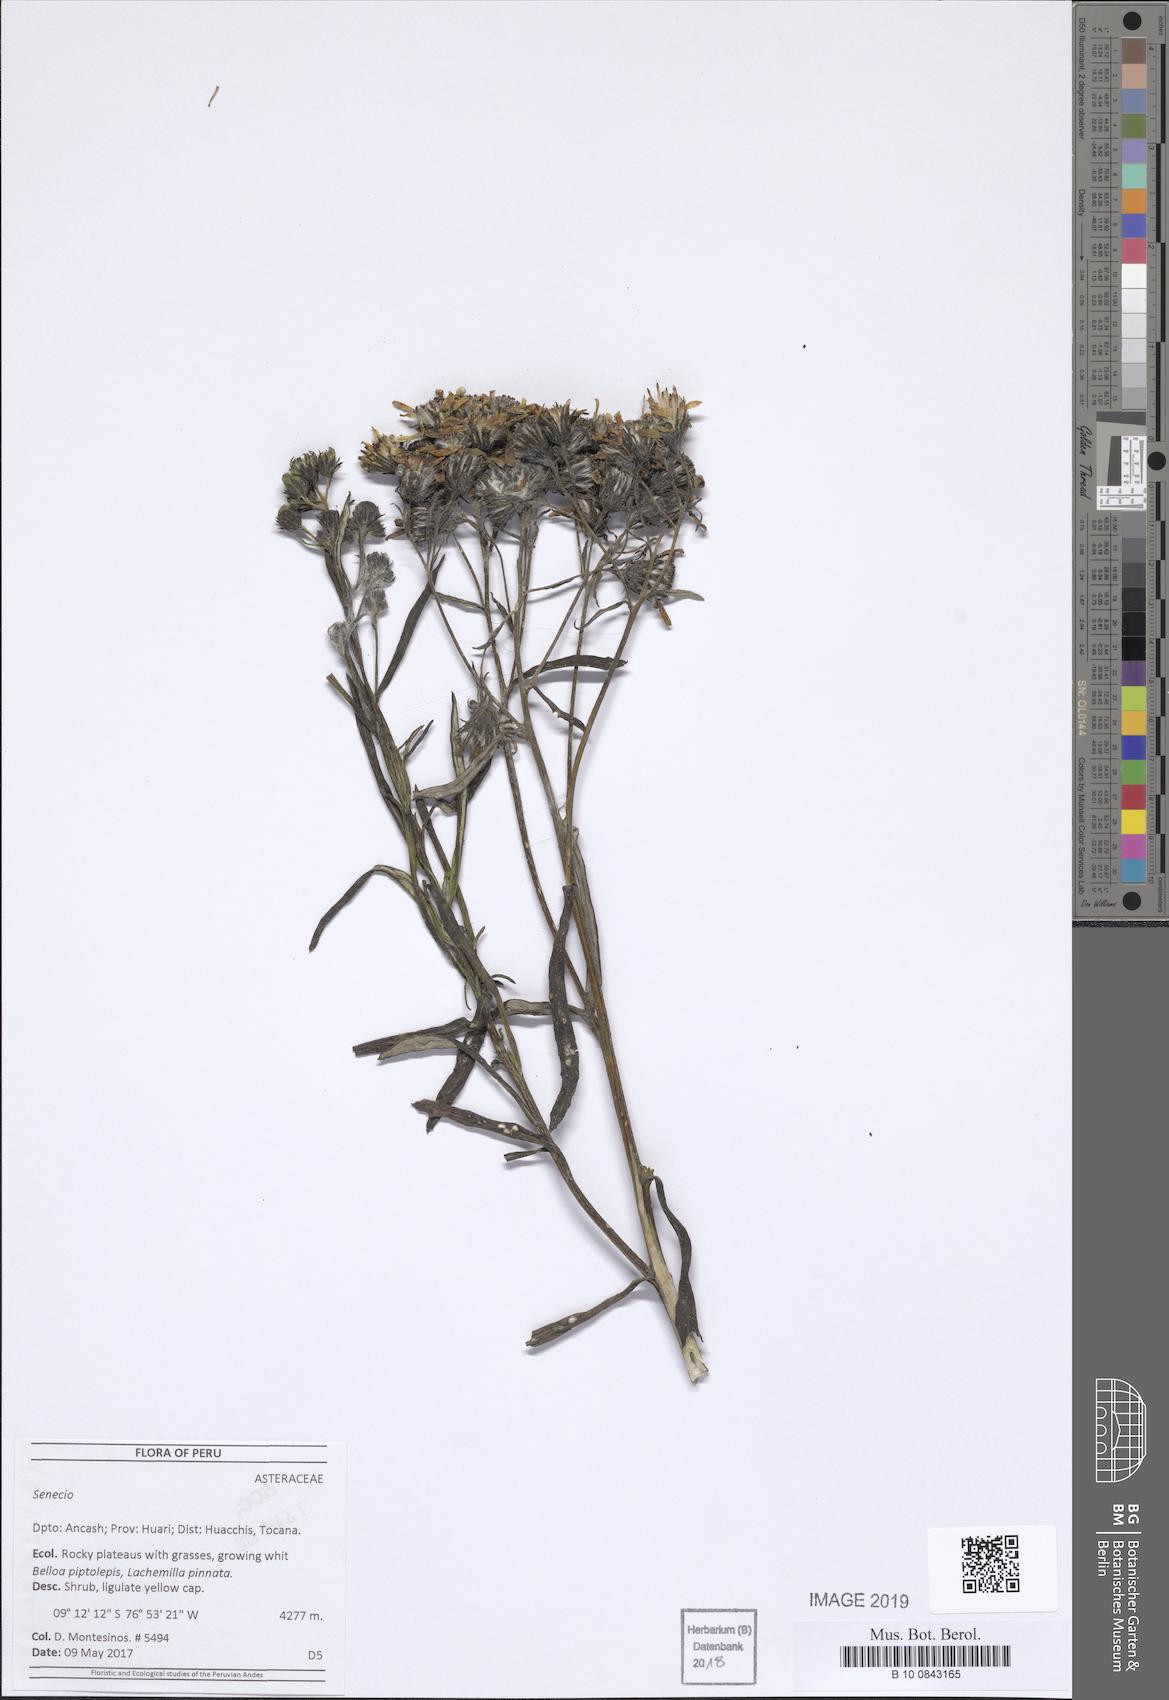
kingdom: Plantae
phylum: Tracheophyta
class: Magnoliopsida
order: Asterales
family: Asteraceae
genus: Senecio
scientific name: Senecio melanocalyx
